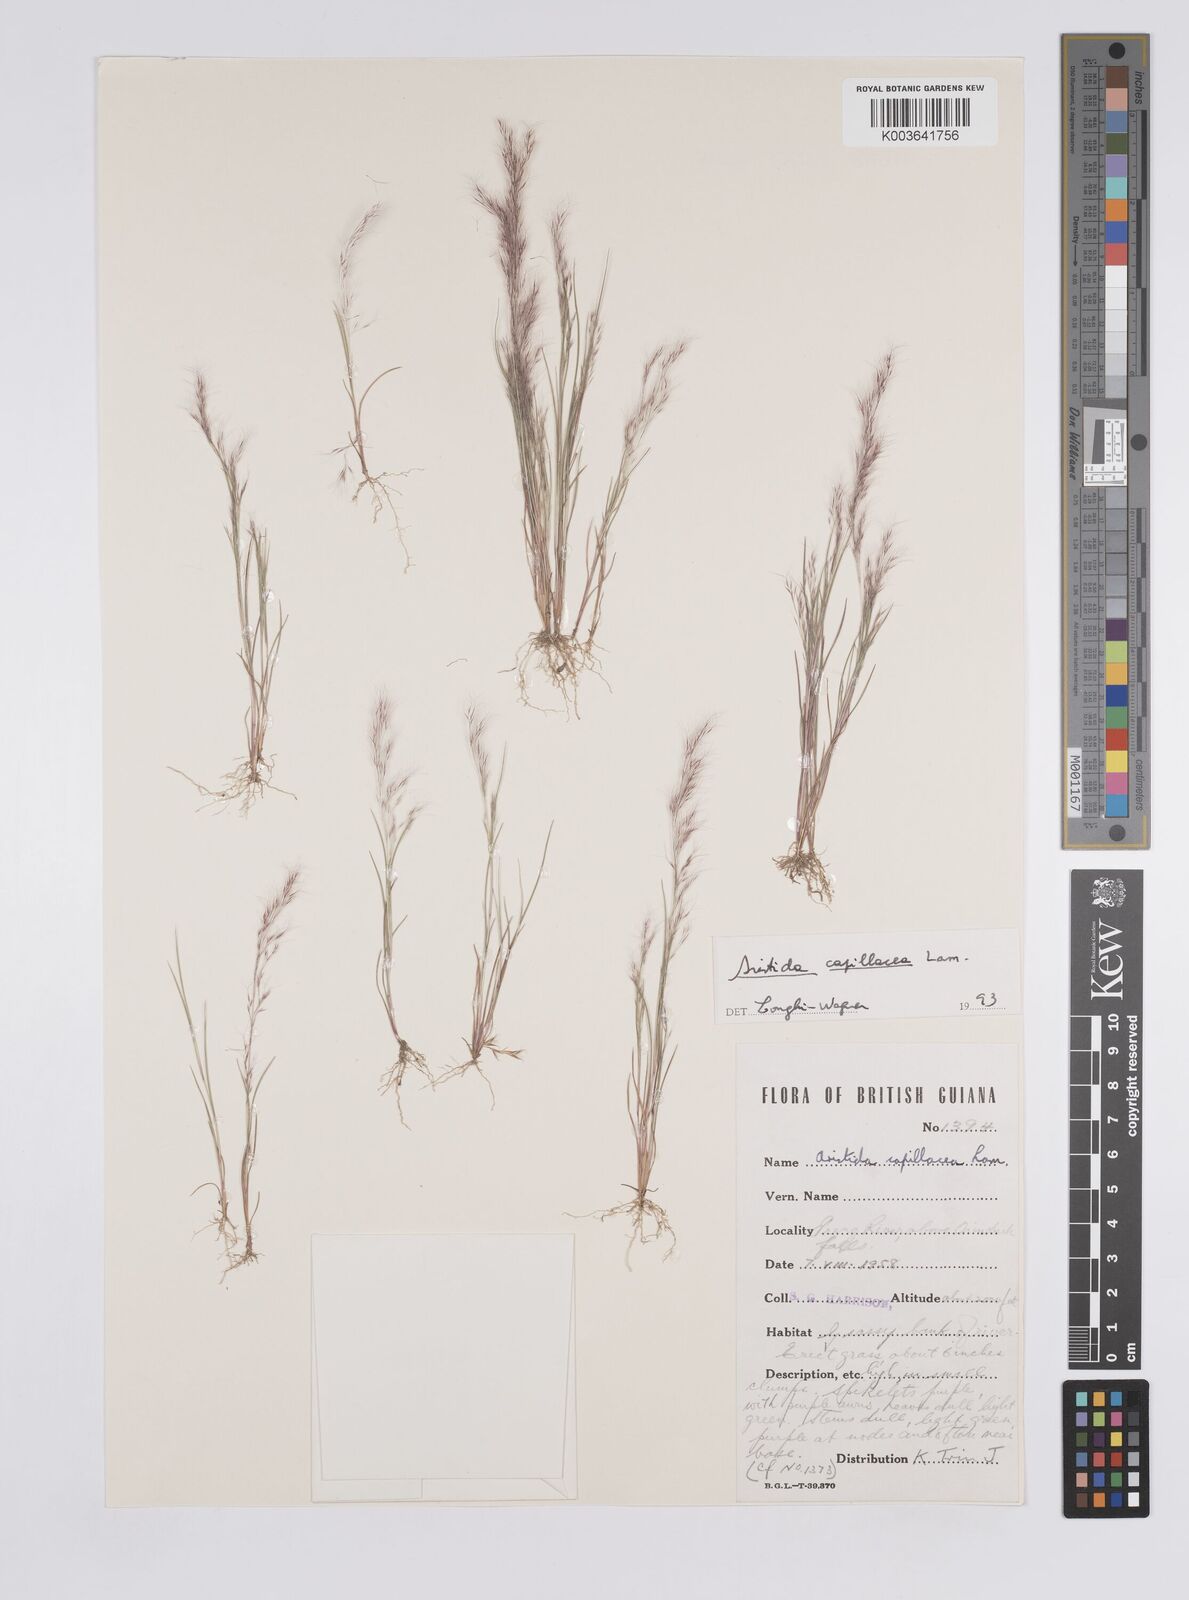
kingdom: Plantae
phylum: Tracheophyta
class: Liliopsida
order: Poales
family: Poaceae
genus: Aristida
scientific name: Aristida capillacea
